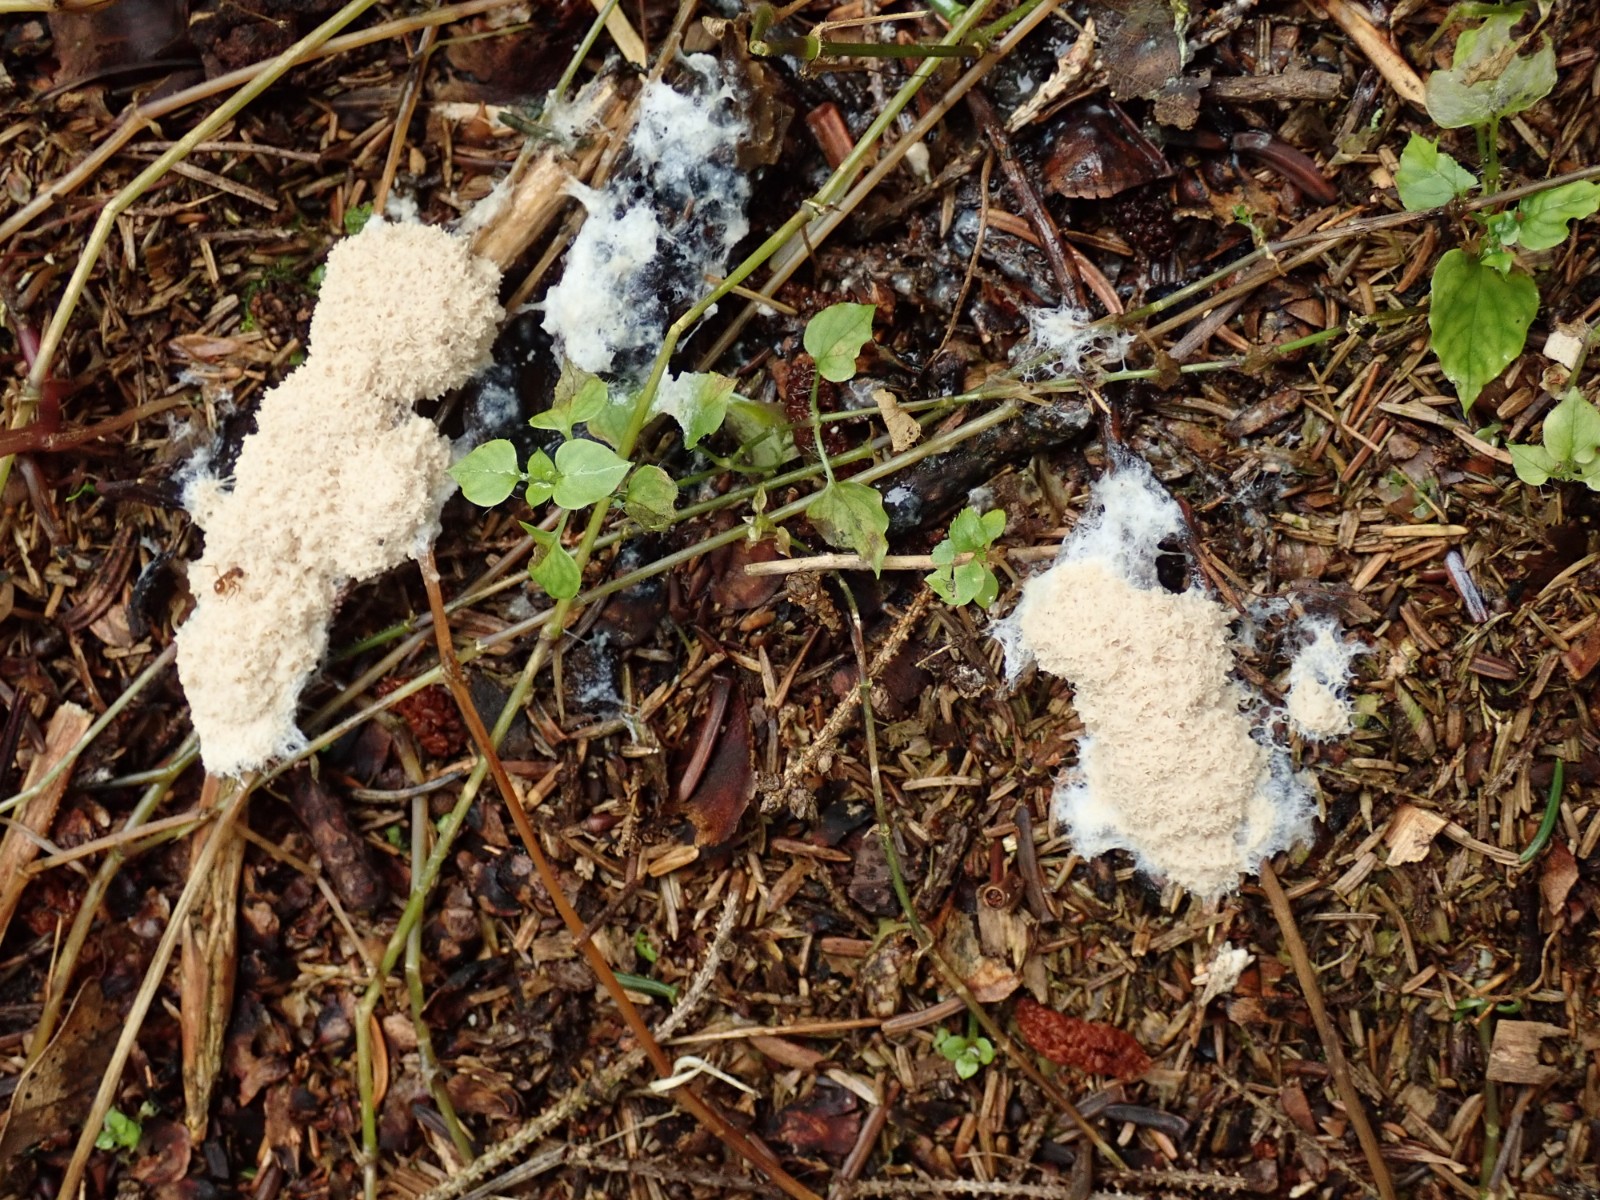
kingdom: Protozoa
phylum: Mycetozoa
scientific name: Mycetozoa
